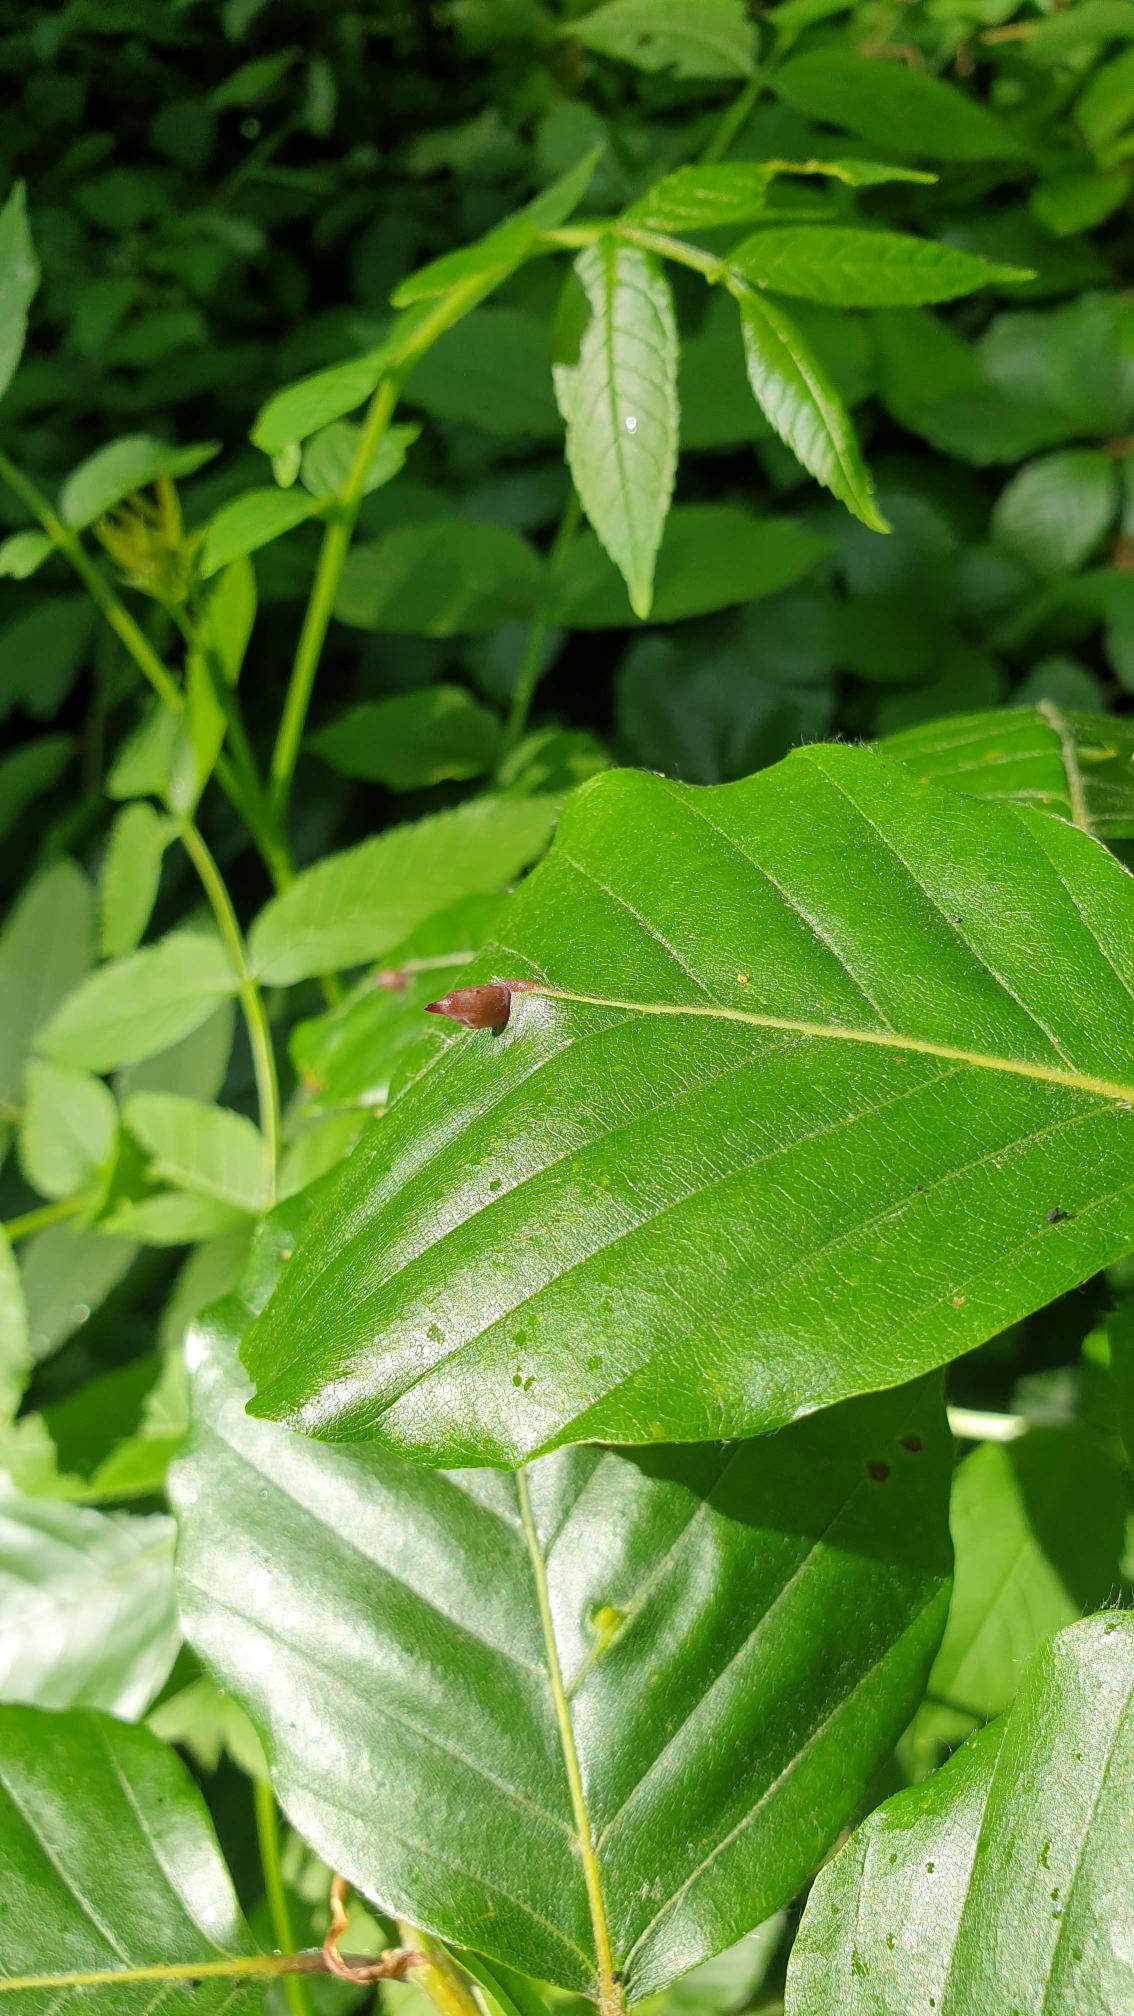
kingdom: Animalia
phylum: Arthropoda
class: Insecta
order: Diptera
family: Cecidomyiidae
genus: Mikiola
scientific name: Mikiola fagi
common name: Bøgegalmyg
